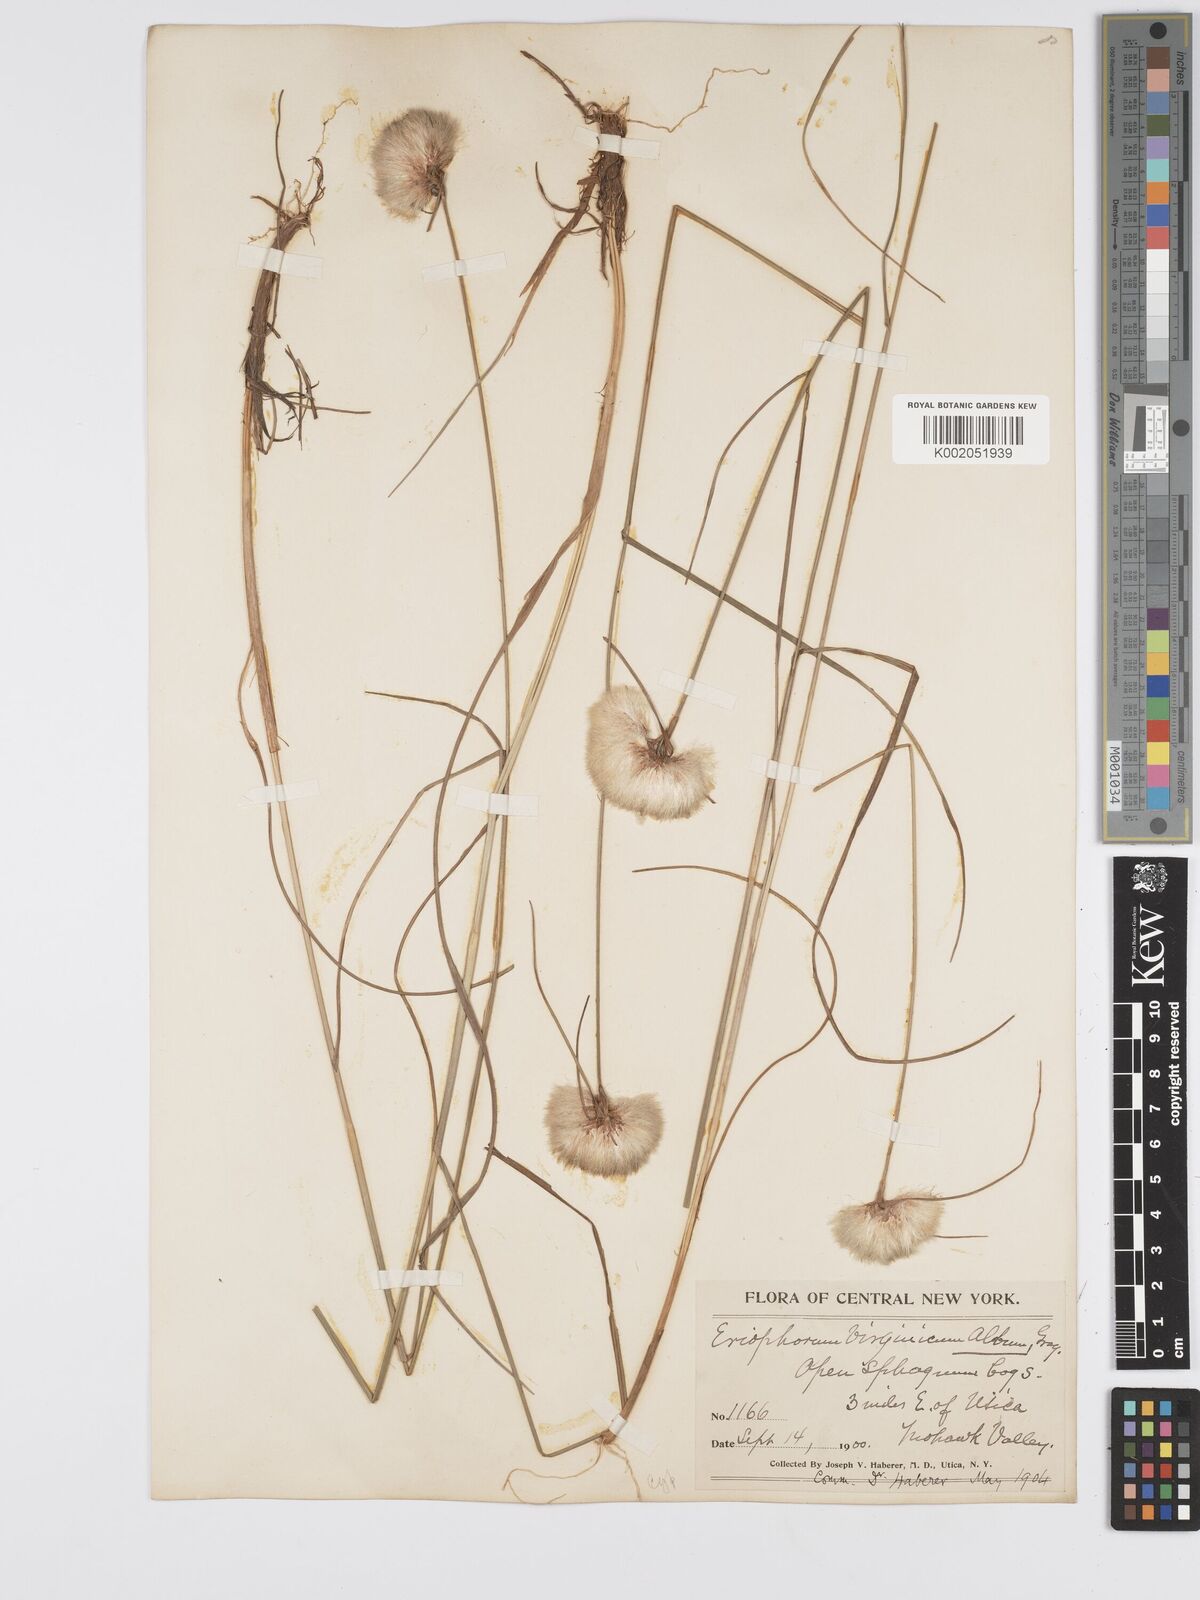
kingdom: Plantae
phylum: Tracheophyta
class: Liliopsida
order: Poales
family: Cyperaceae
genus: Eriophorum
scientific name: Eriophorum virginicum
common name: Tawny cottongrass
